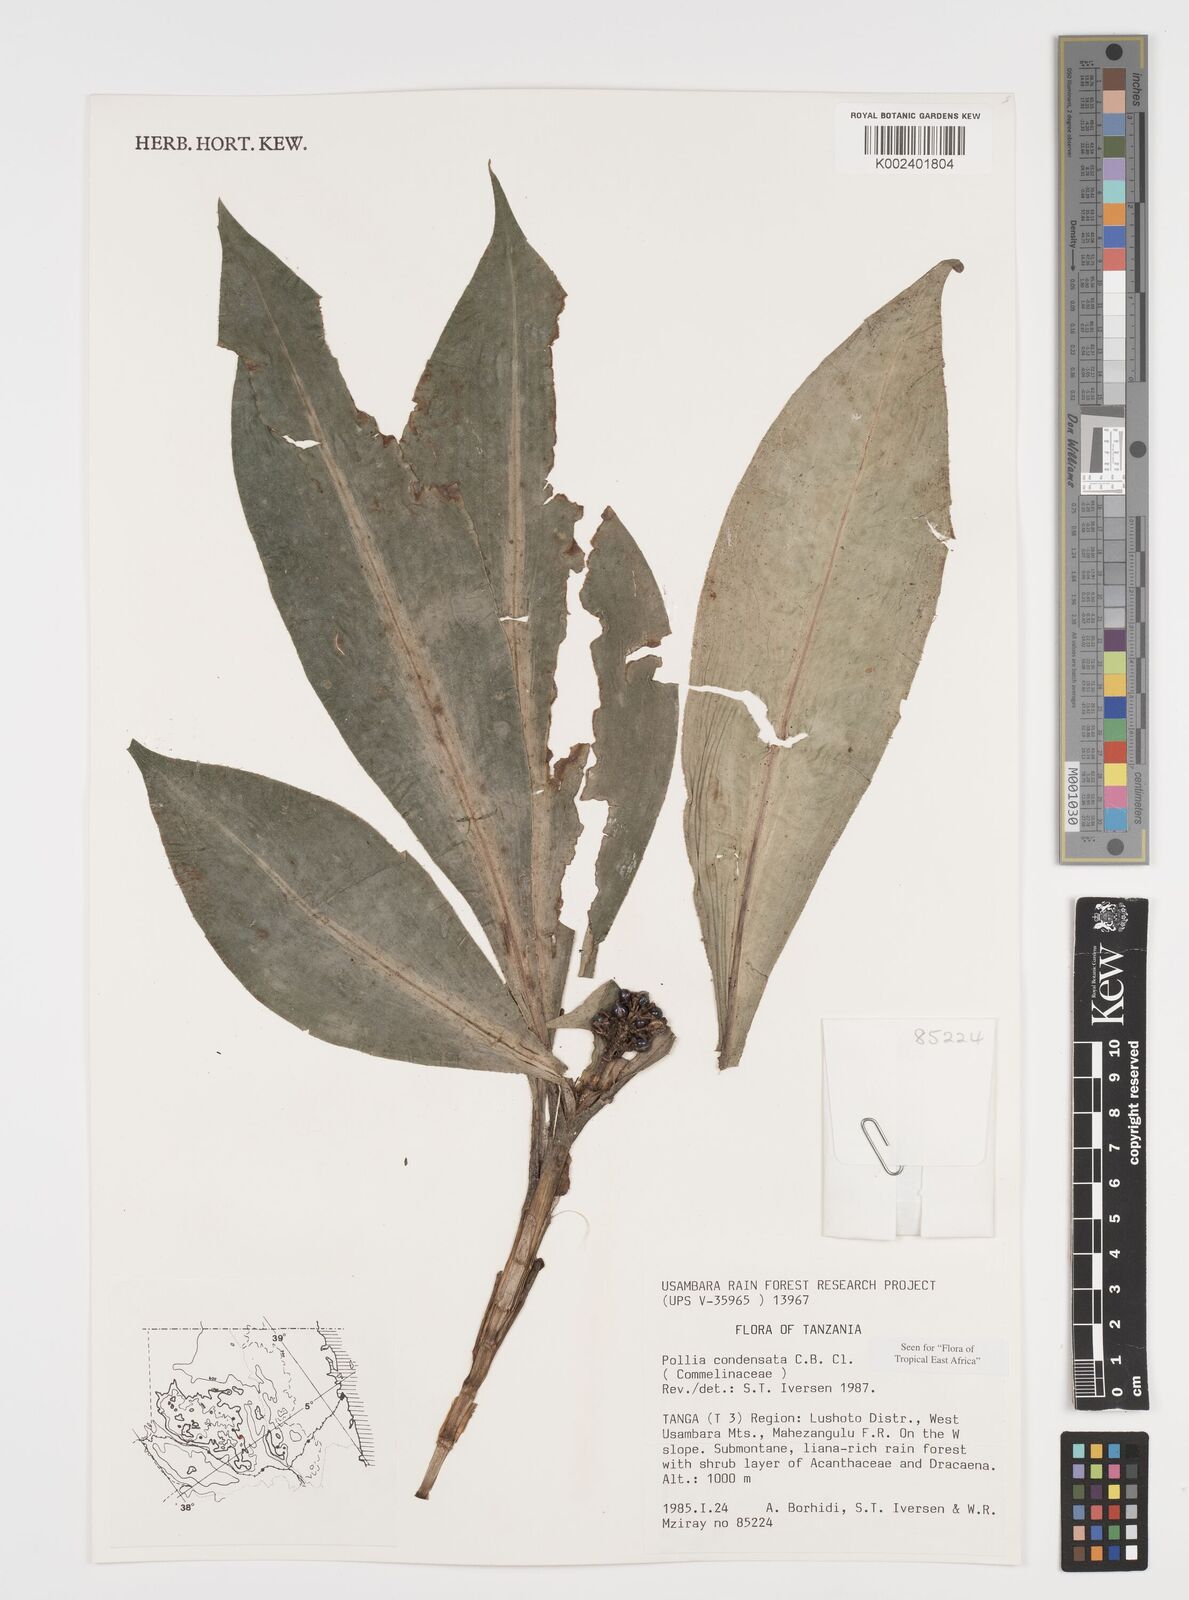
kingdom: Plantae
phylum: Tracheophyta
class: Liliopsida
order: Commelinales
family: Commelinaceae
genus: Pollia
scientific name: Pollia condensata
